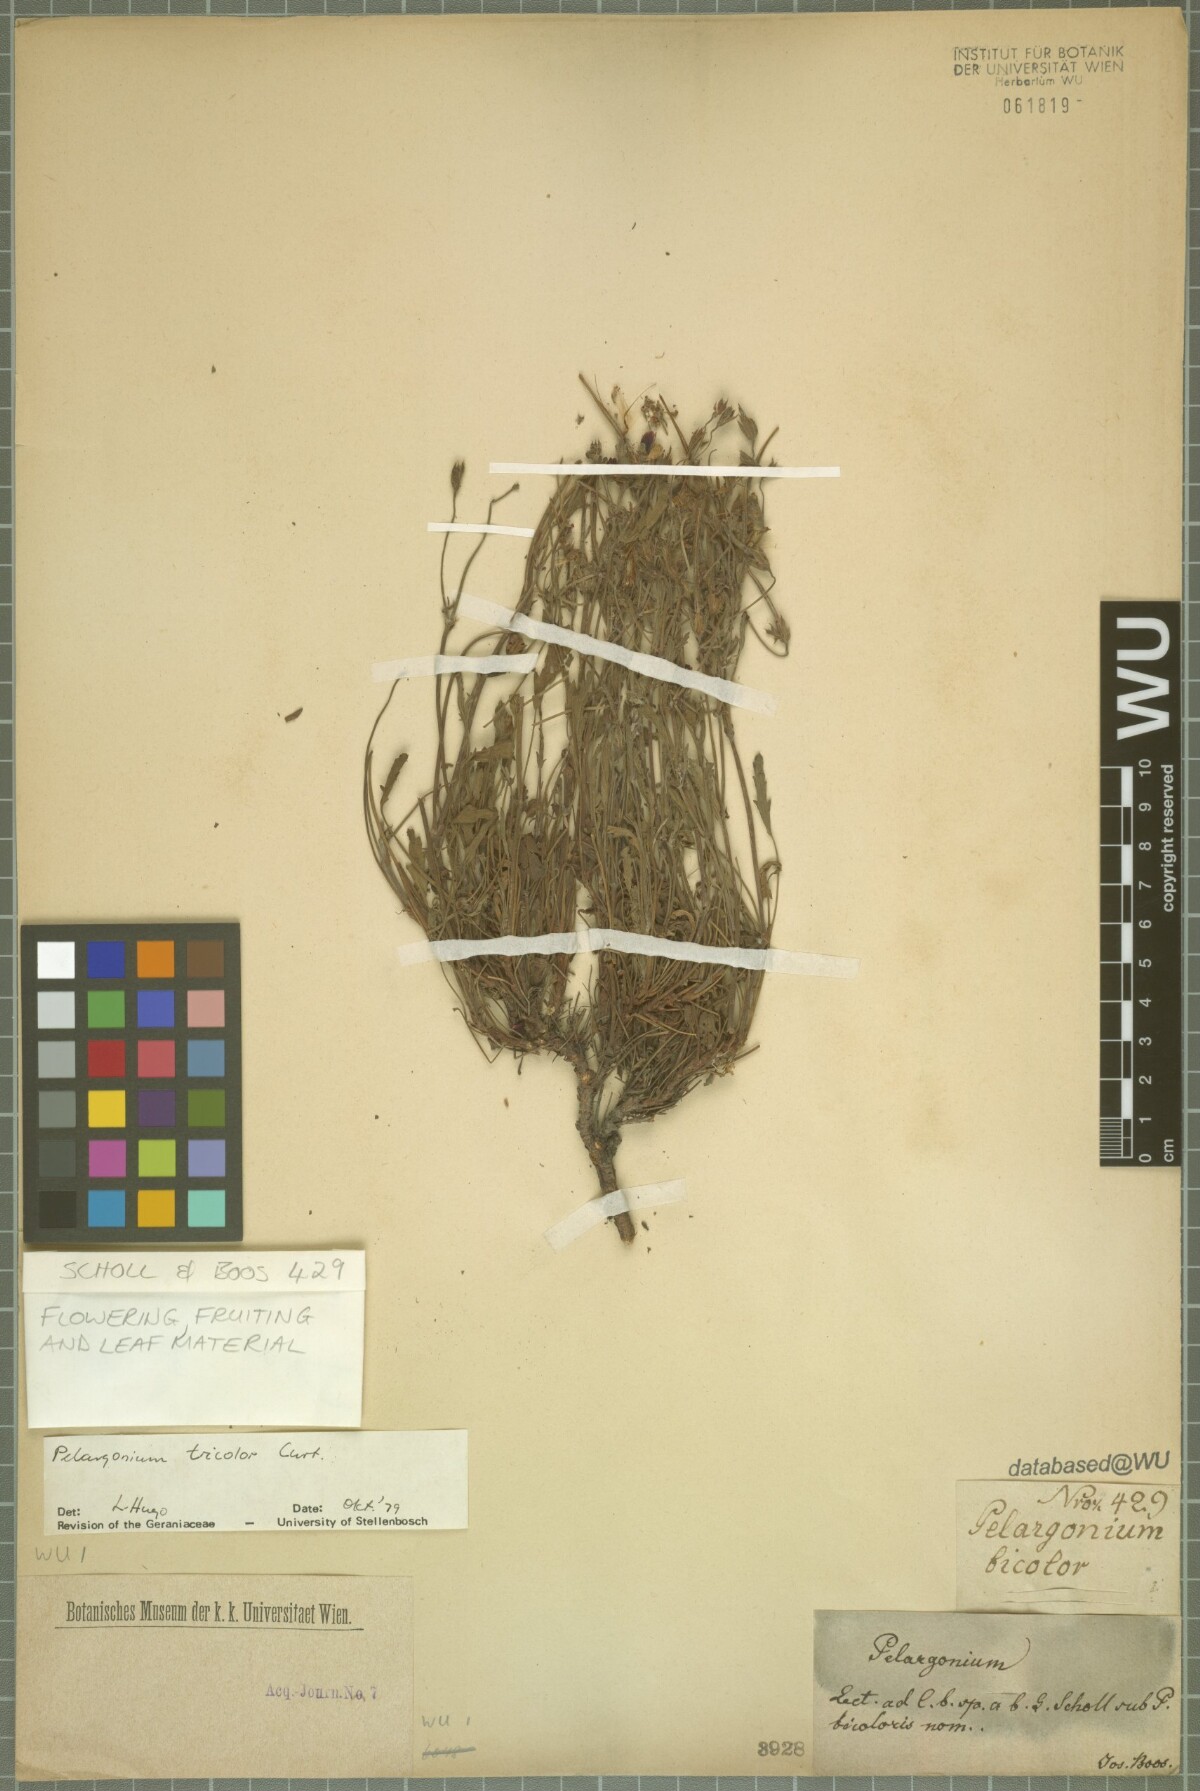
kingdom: Plantae
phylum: Tracheophyta
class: Magnoliopsida
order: Geraniales
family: Geraniaceae
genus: Pelargonium
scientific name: Pelargonium tricolor
